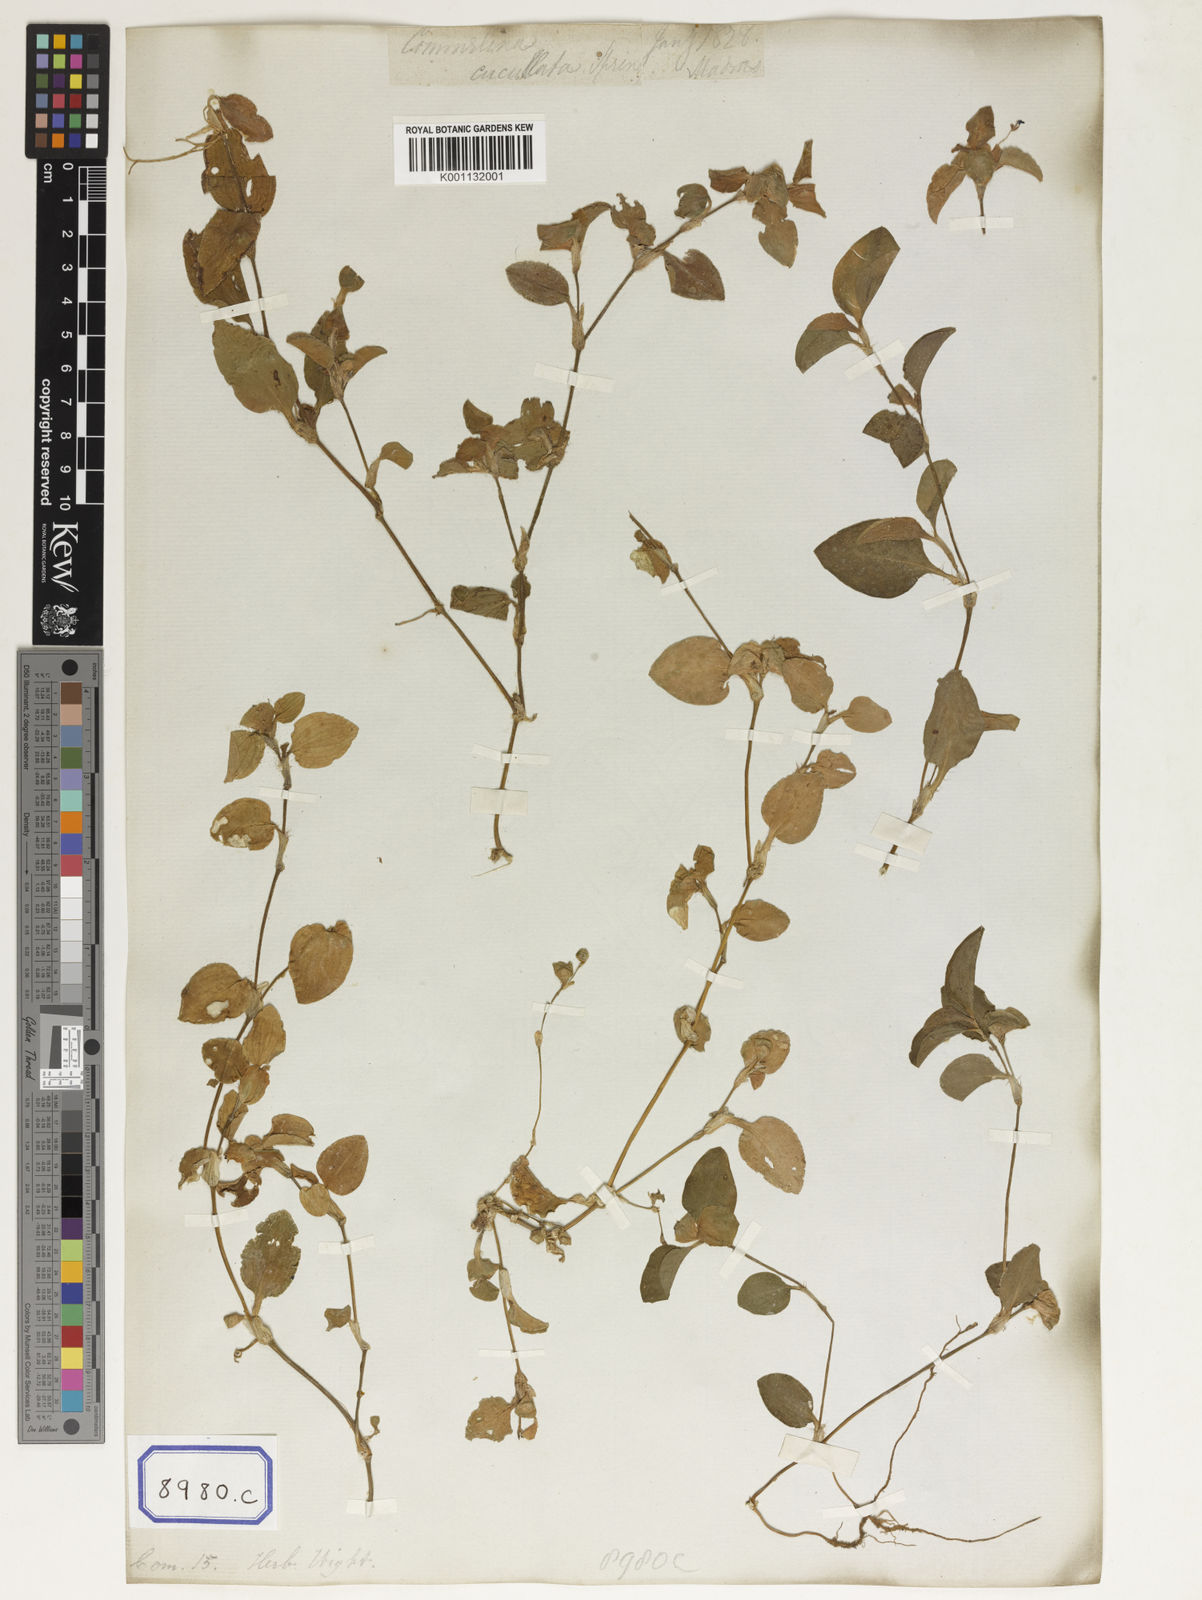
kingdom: Plantae
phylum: Tracheophyta
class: Liliopsida
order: Commelinales
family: Commelinaceae
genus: Commelina
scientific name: Commelina benghalensis
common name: Jio
